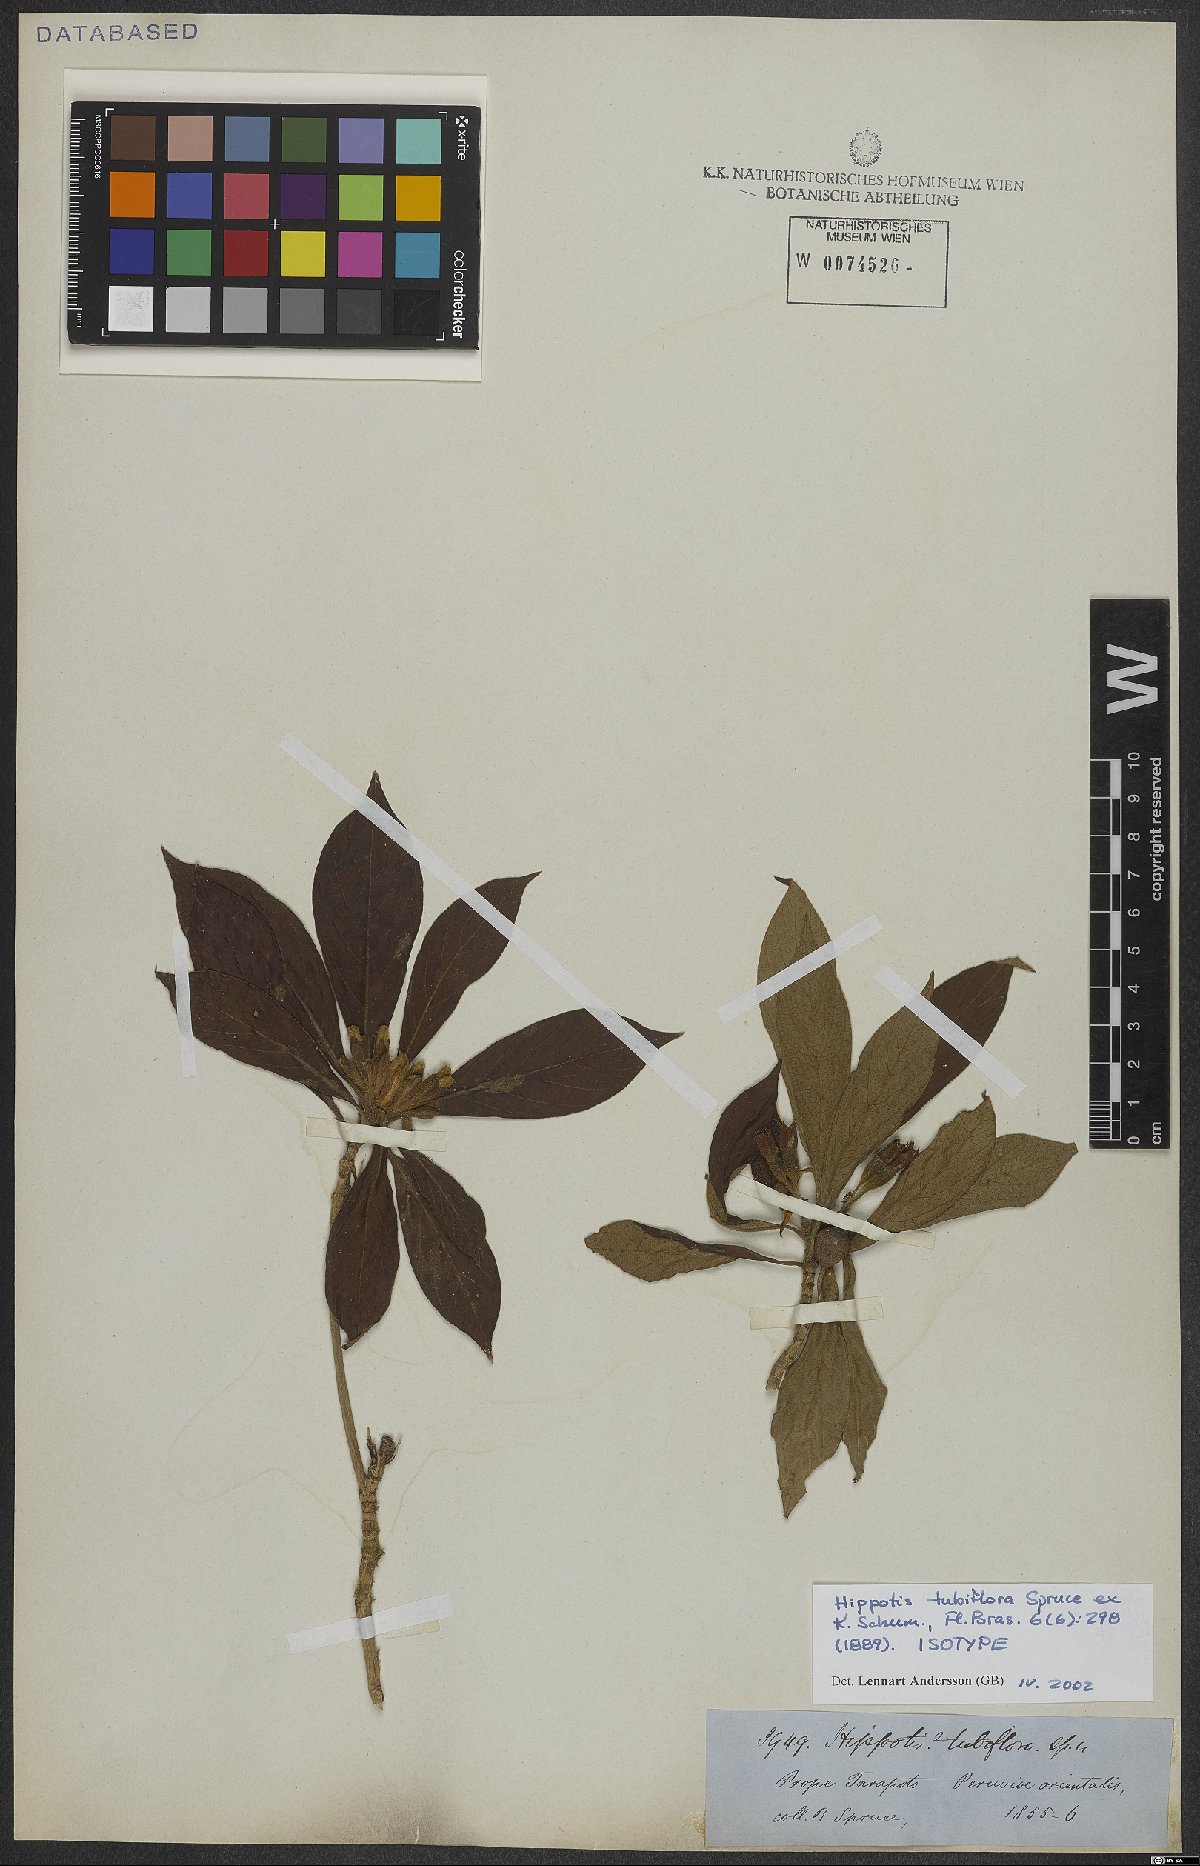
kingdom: Plantae
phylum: Tracheophyta
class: Magnoliopsida
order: Gentianales
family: Rubiaceae
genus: Hippotis
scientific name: Hippotis tubiflora
